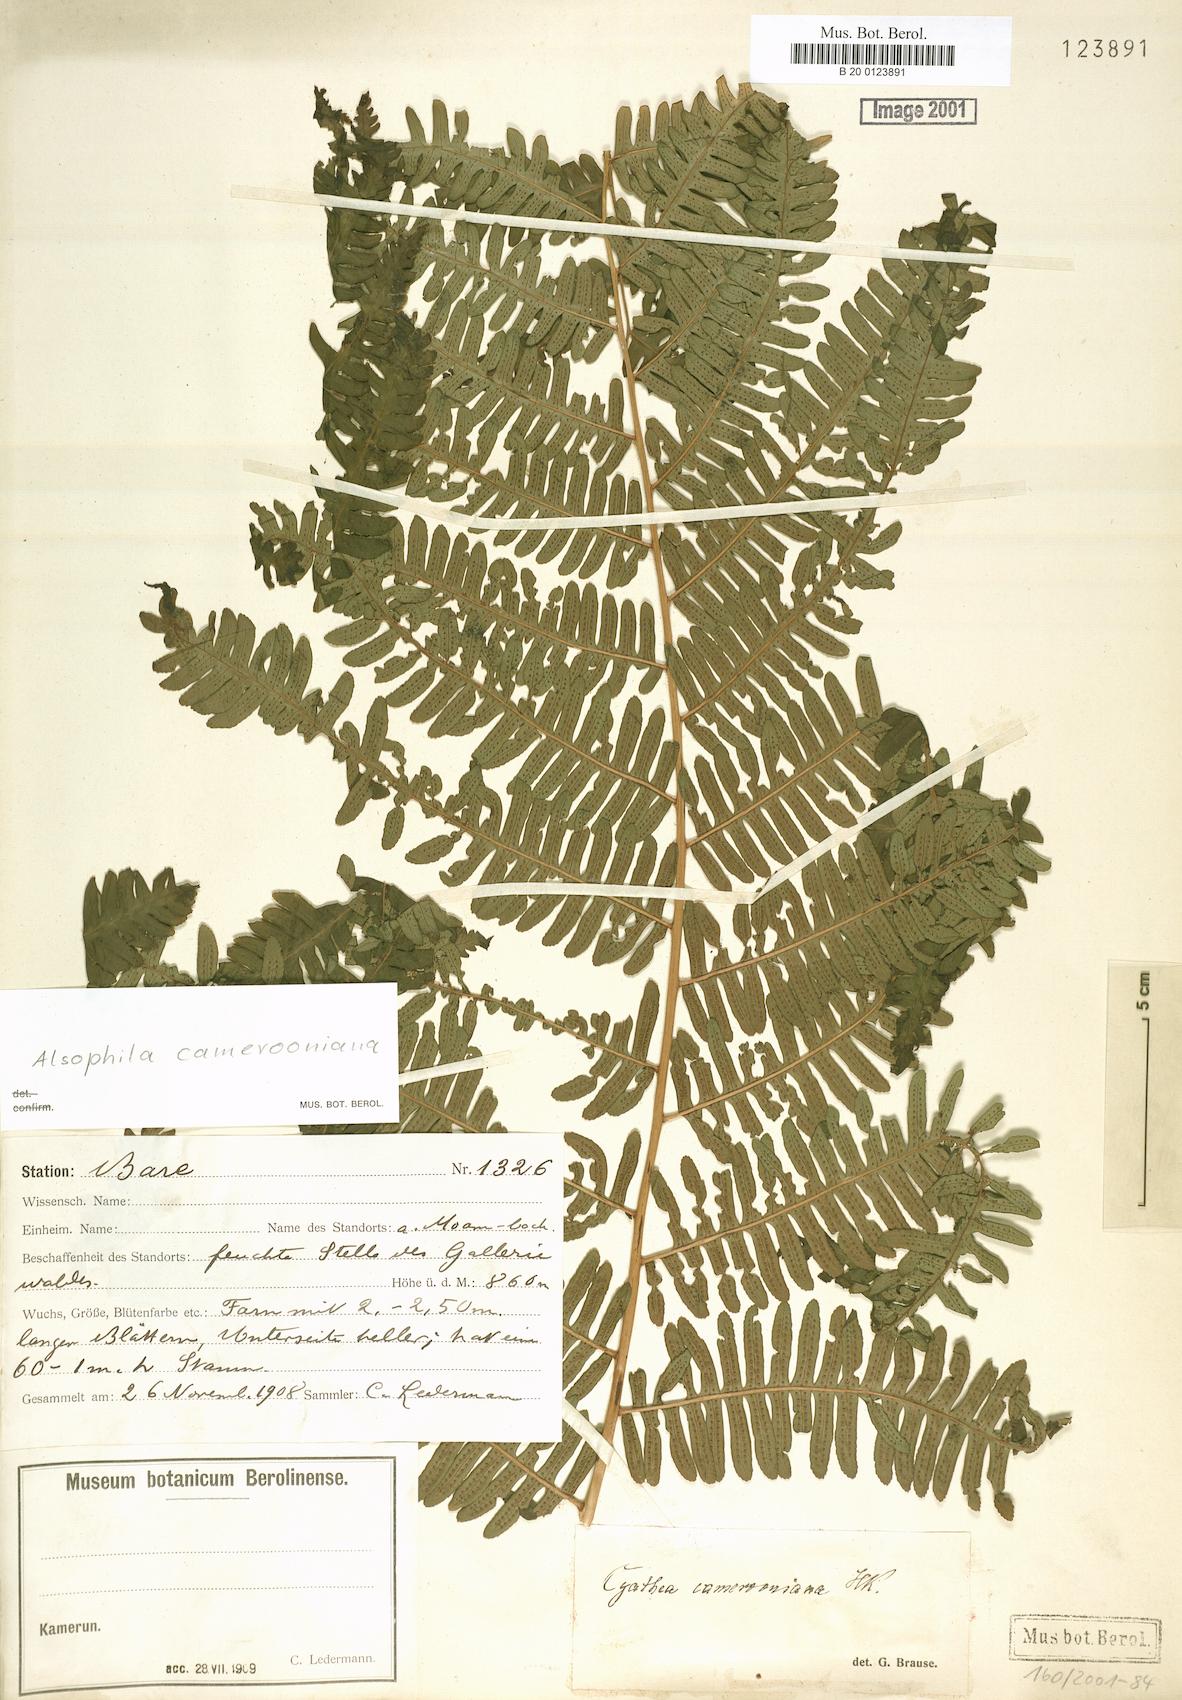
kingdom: Plantae
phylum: Tracheophyta
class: Polypodiopsida
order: Cyatheales
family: Cyatheaceae
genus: Alsophila
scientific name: Alsophila camerooniana
